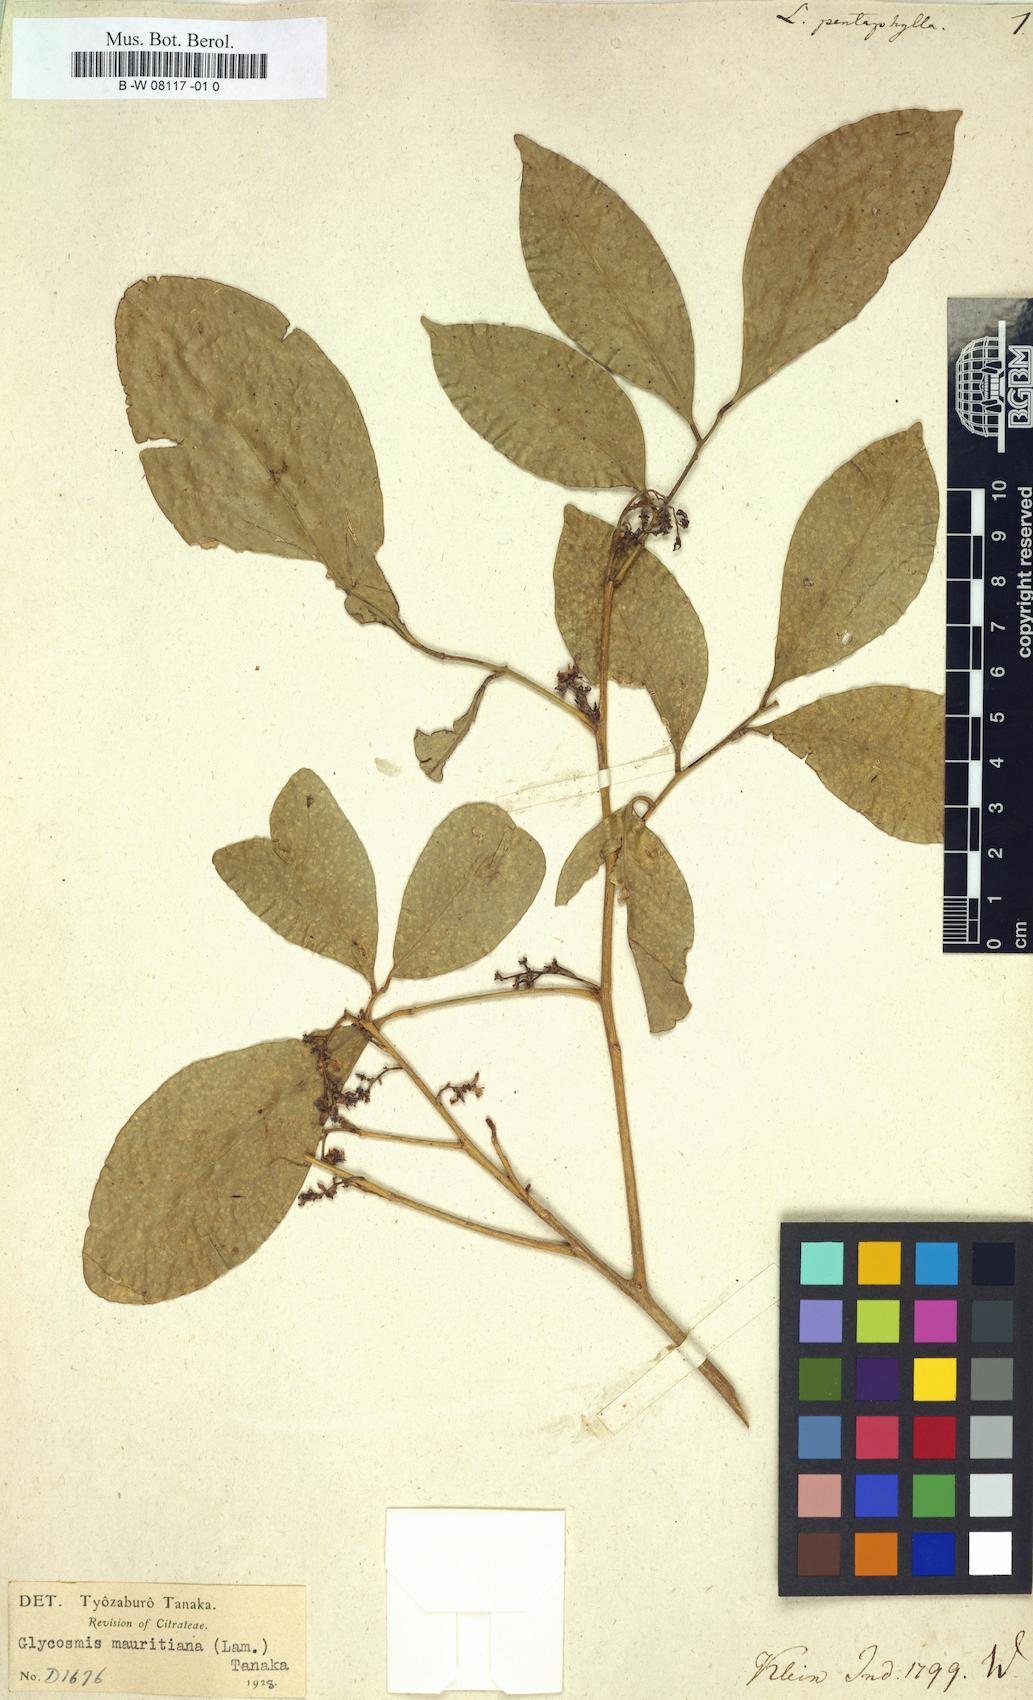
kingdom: Plantae
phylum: Tracheophyta
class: Magnoliopsida
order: Sapindales
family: Rutaceae
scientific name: Rutaceae
